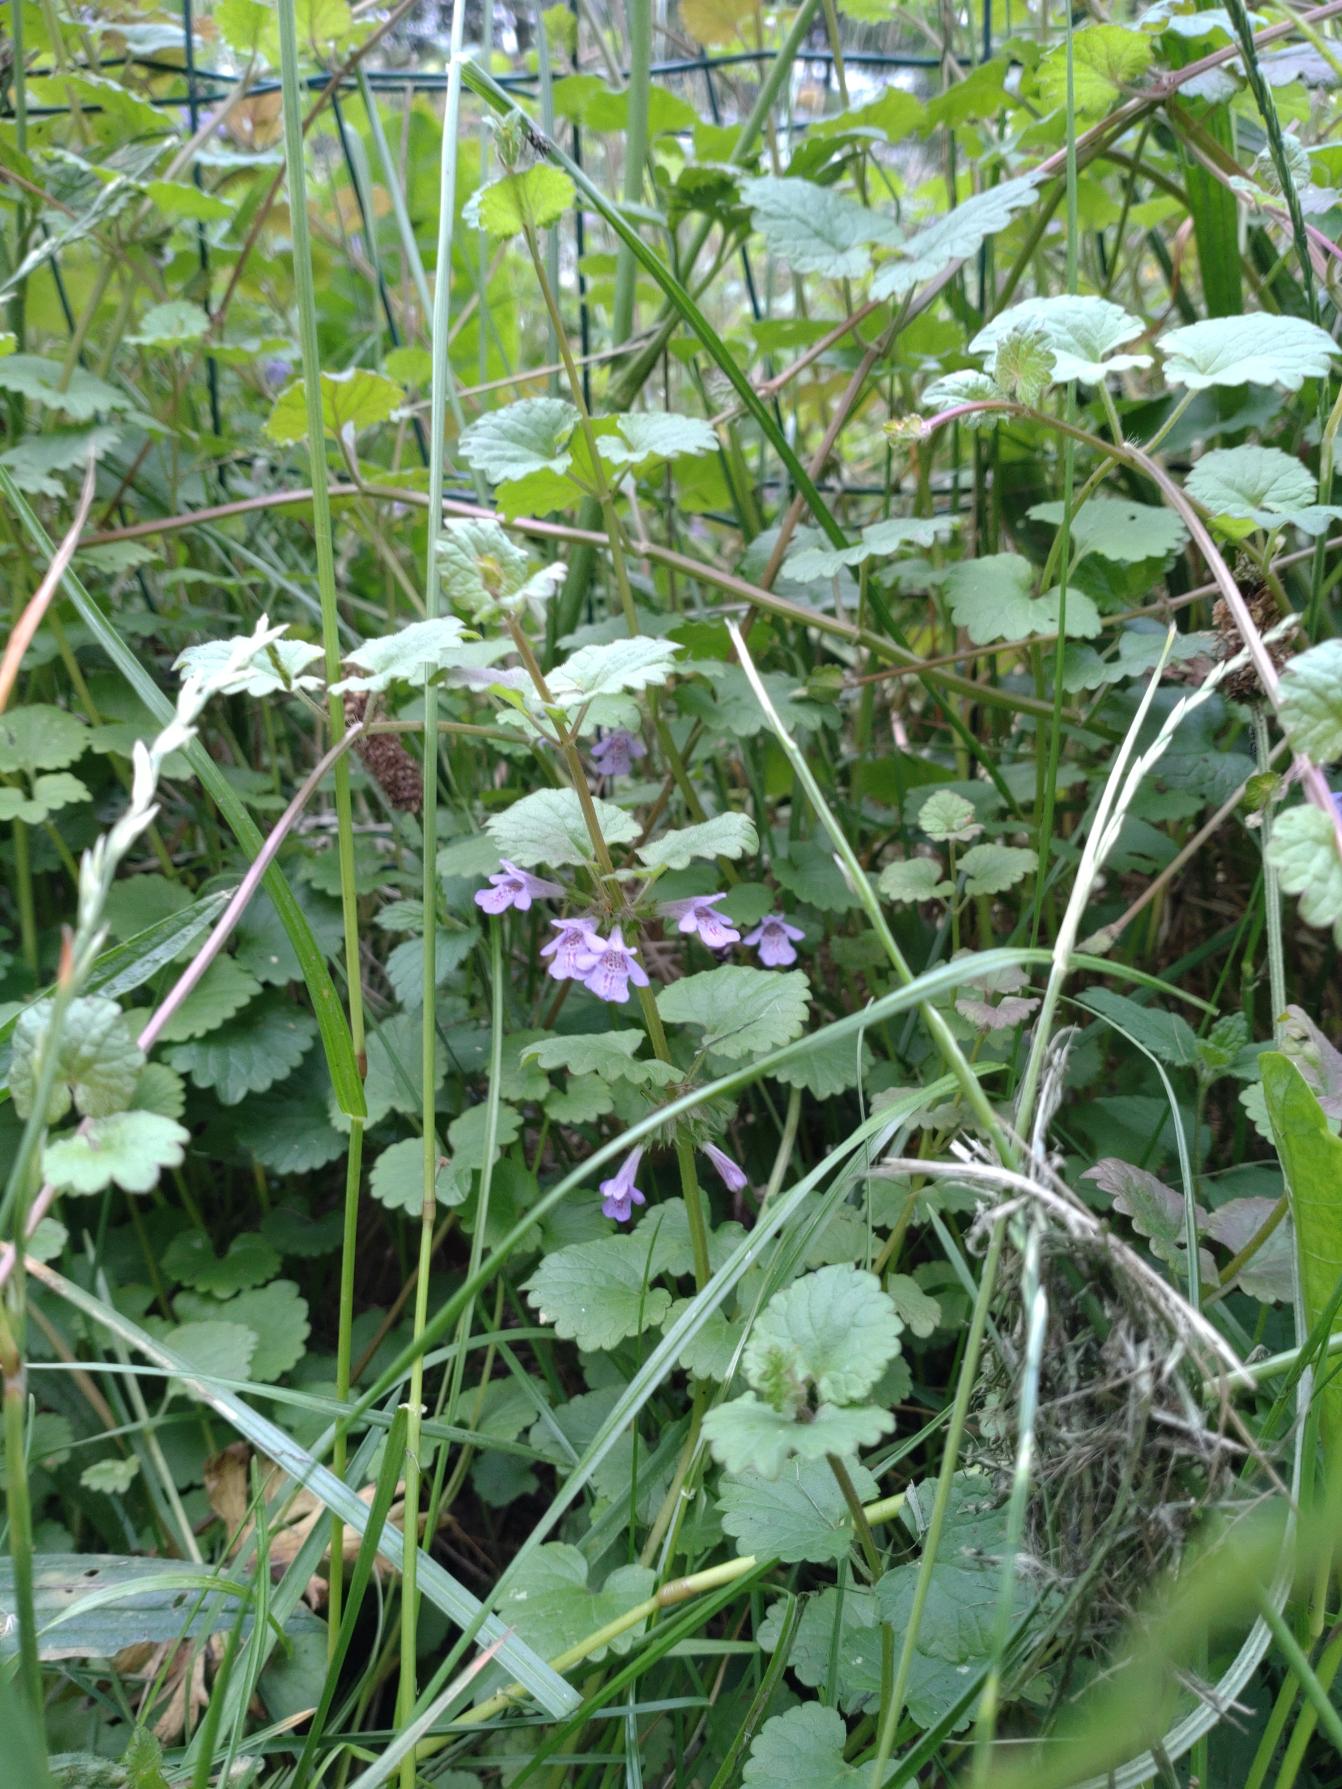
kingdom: Plantae
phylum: Tracheophyta
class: Magnoliopsida
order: Lamiales
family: Lamiaceae
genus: Glechoma
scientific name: Glechoma hederacea
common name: Korsknap
